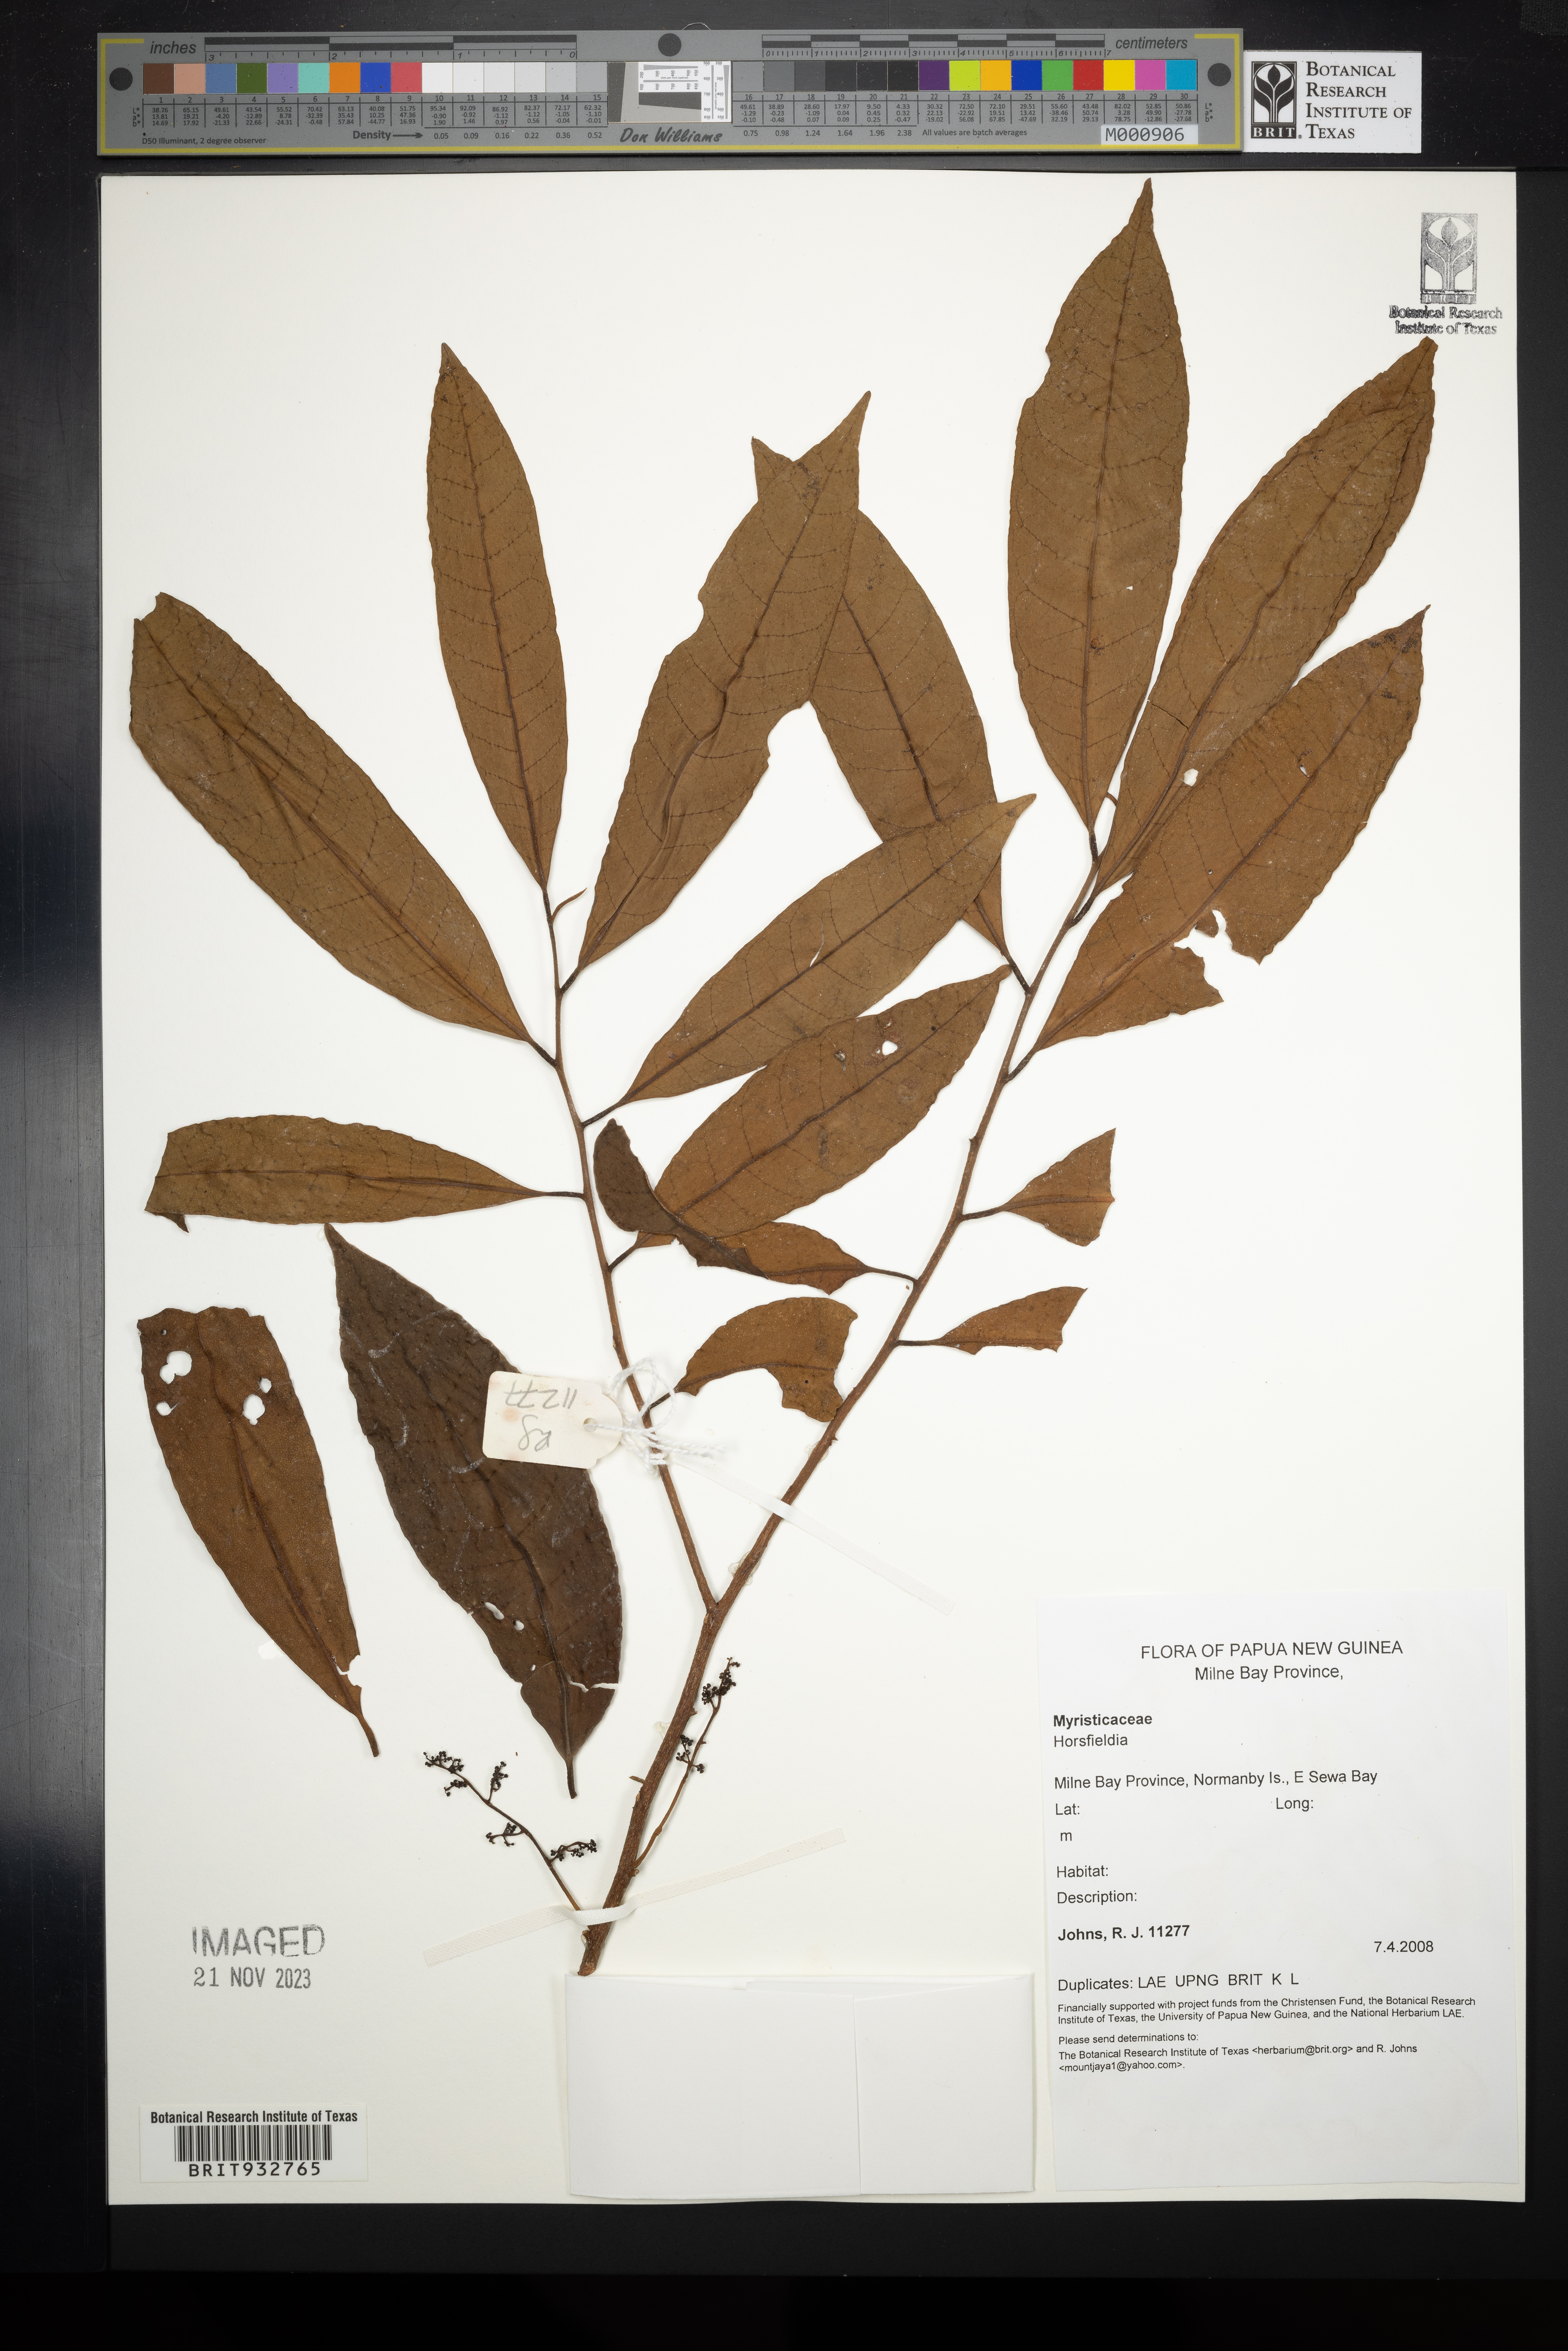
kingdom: Plantae
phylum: Tracheophyta
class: Magnoliopsida
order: Magnoliales
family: Myristicaceae
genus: Horsfieldia
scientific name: Horsfieldia
